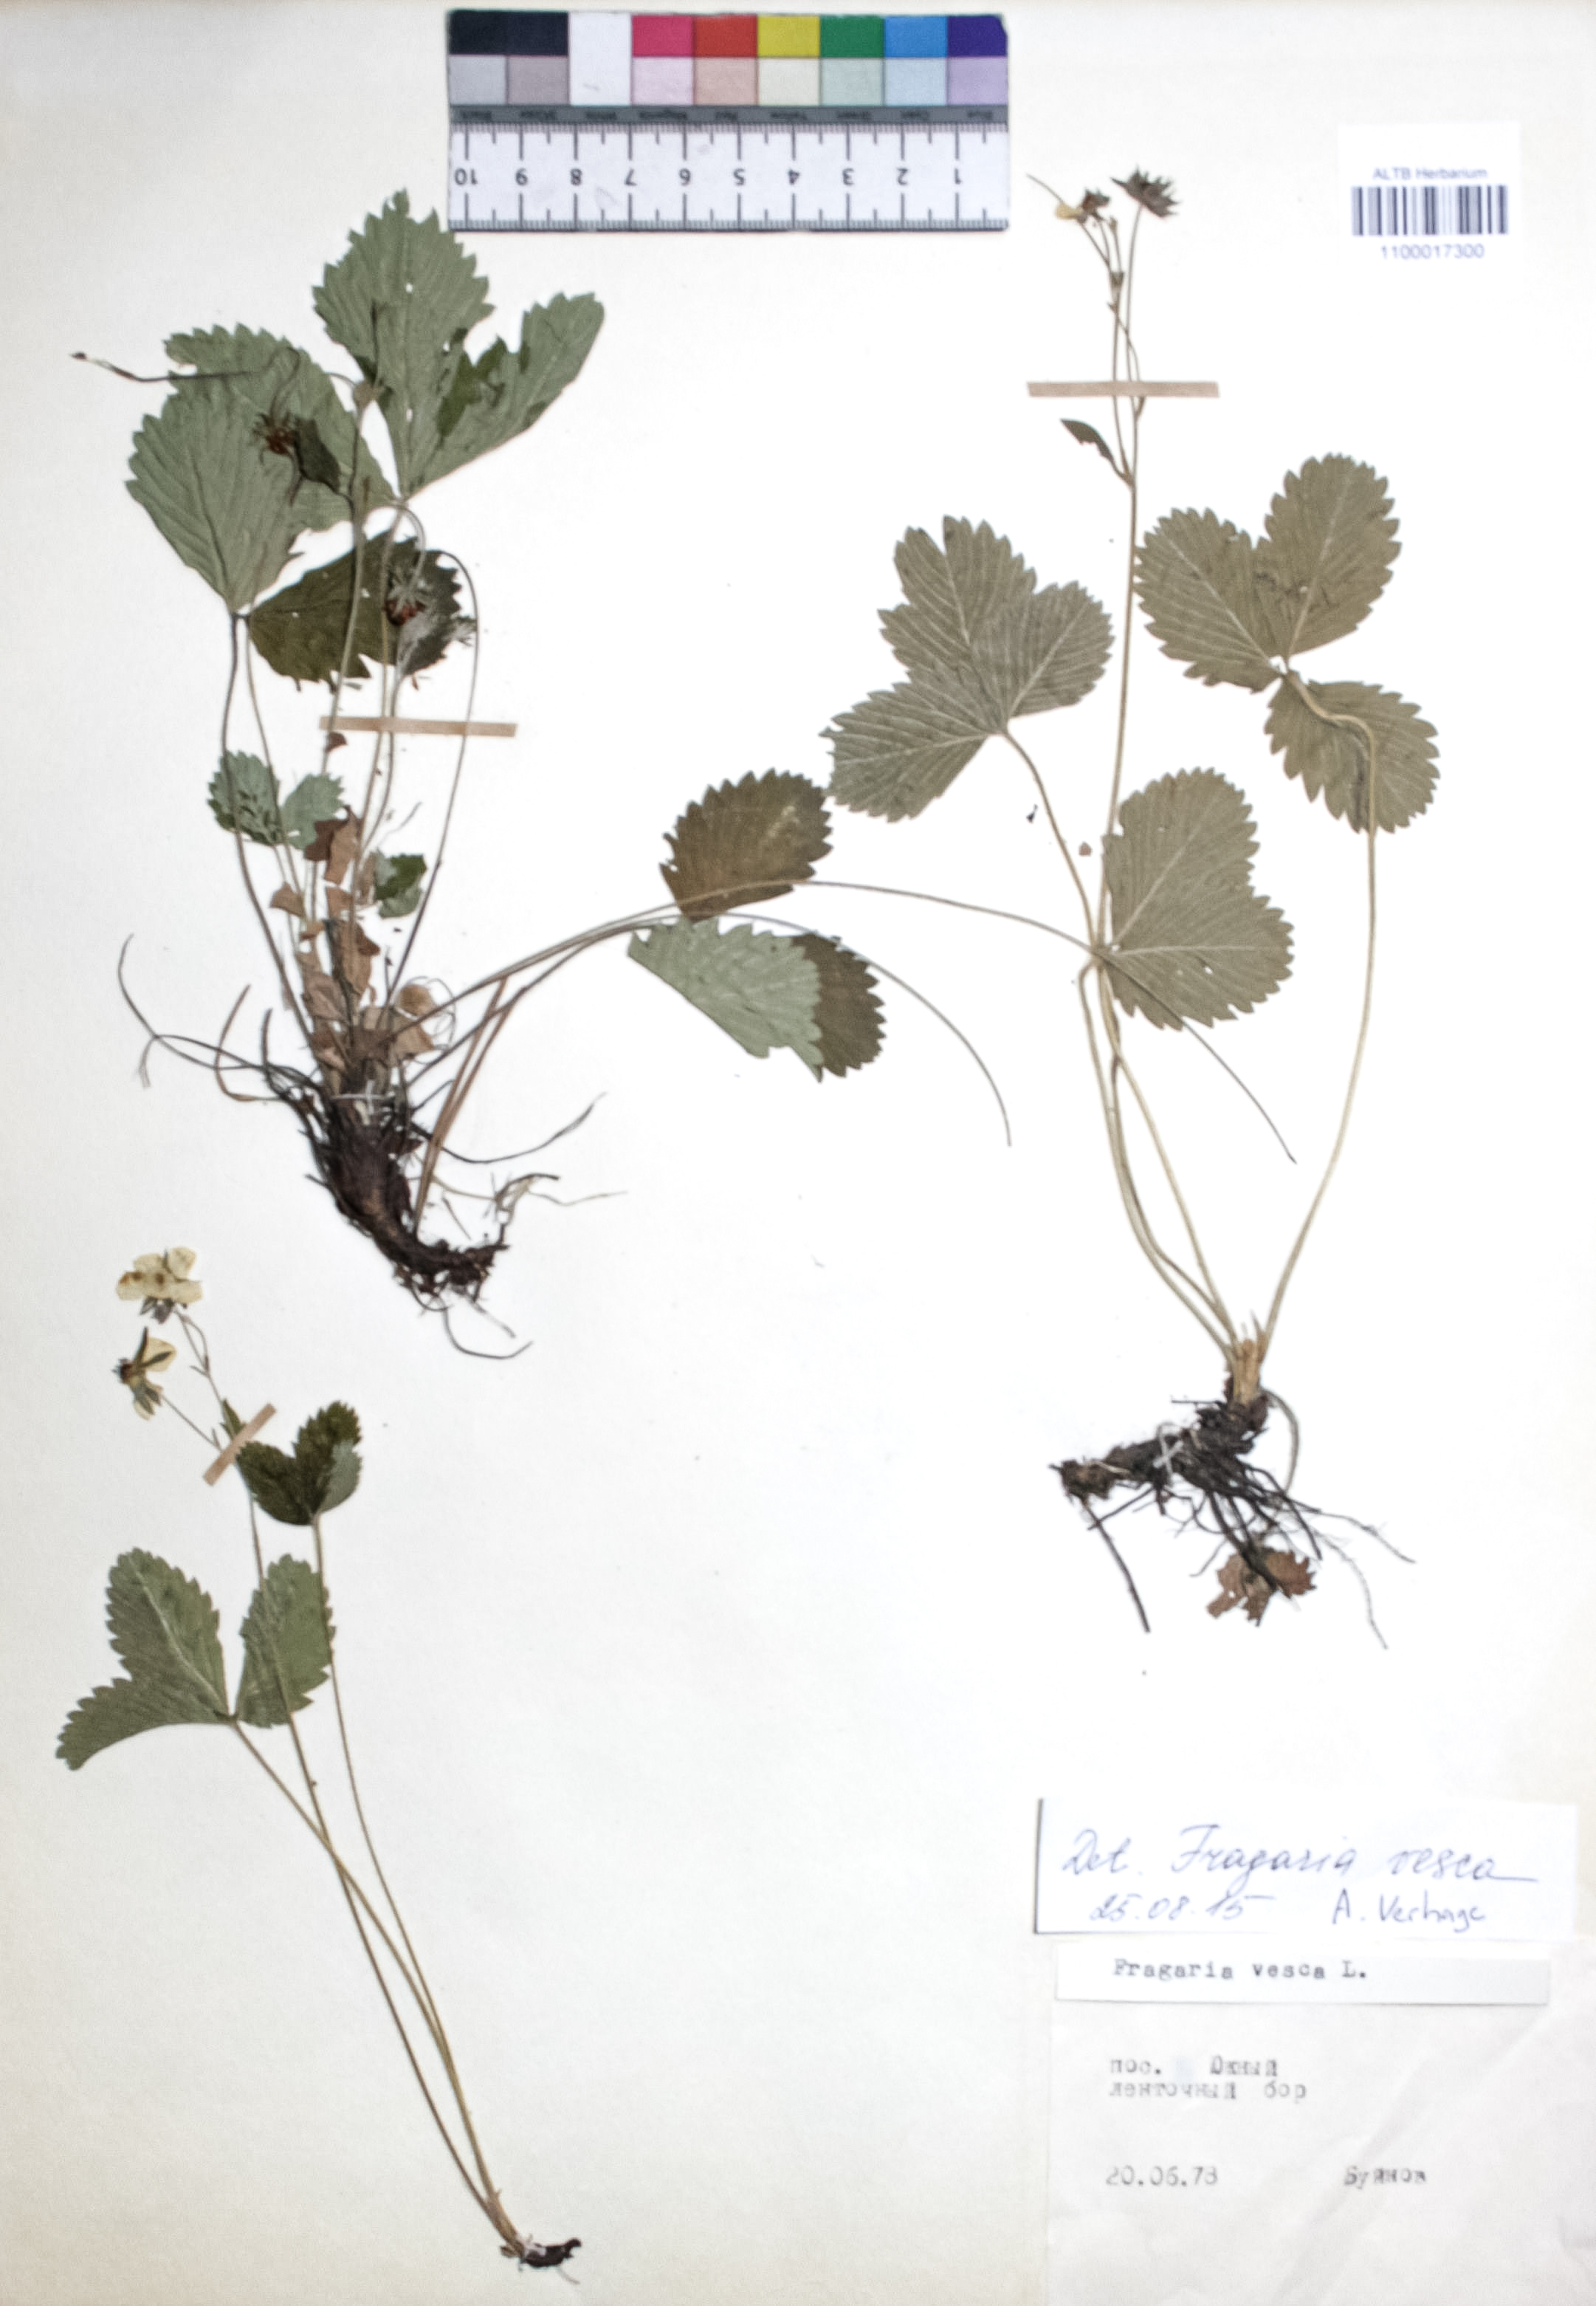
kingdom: Plantae
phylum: Tracheophyta
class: Magnoliopsida
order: Rosales
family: Rosaceae
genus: Fragaria
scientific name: Fragaria vesca
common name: Wild strawberry
